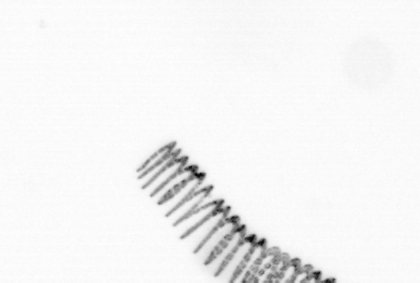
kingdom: Chromista
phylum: Ochrophyta
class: Bacillariophyceae
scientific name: Bacillariophyceae
